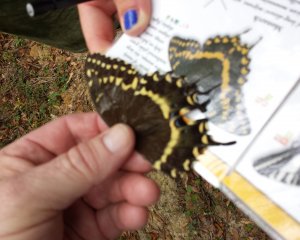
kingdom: Animalia
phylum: Arthropoda
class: Insecta
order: Lepidoptera
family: Papilionidae
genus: Pterourus
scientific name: Pterourus palamedes
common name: Palamedes Swallowtail
